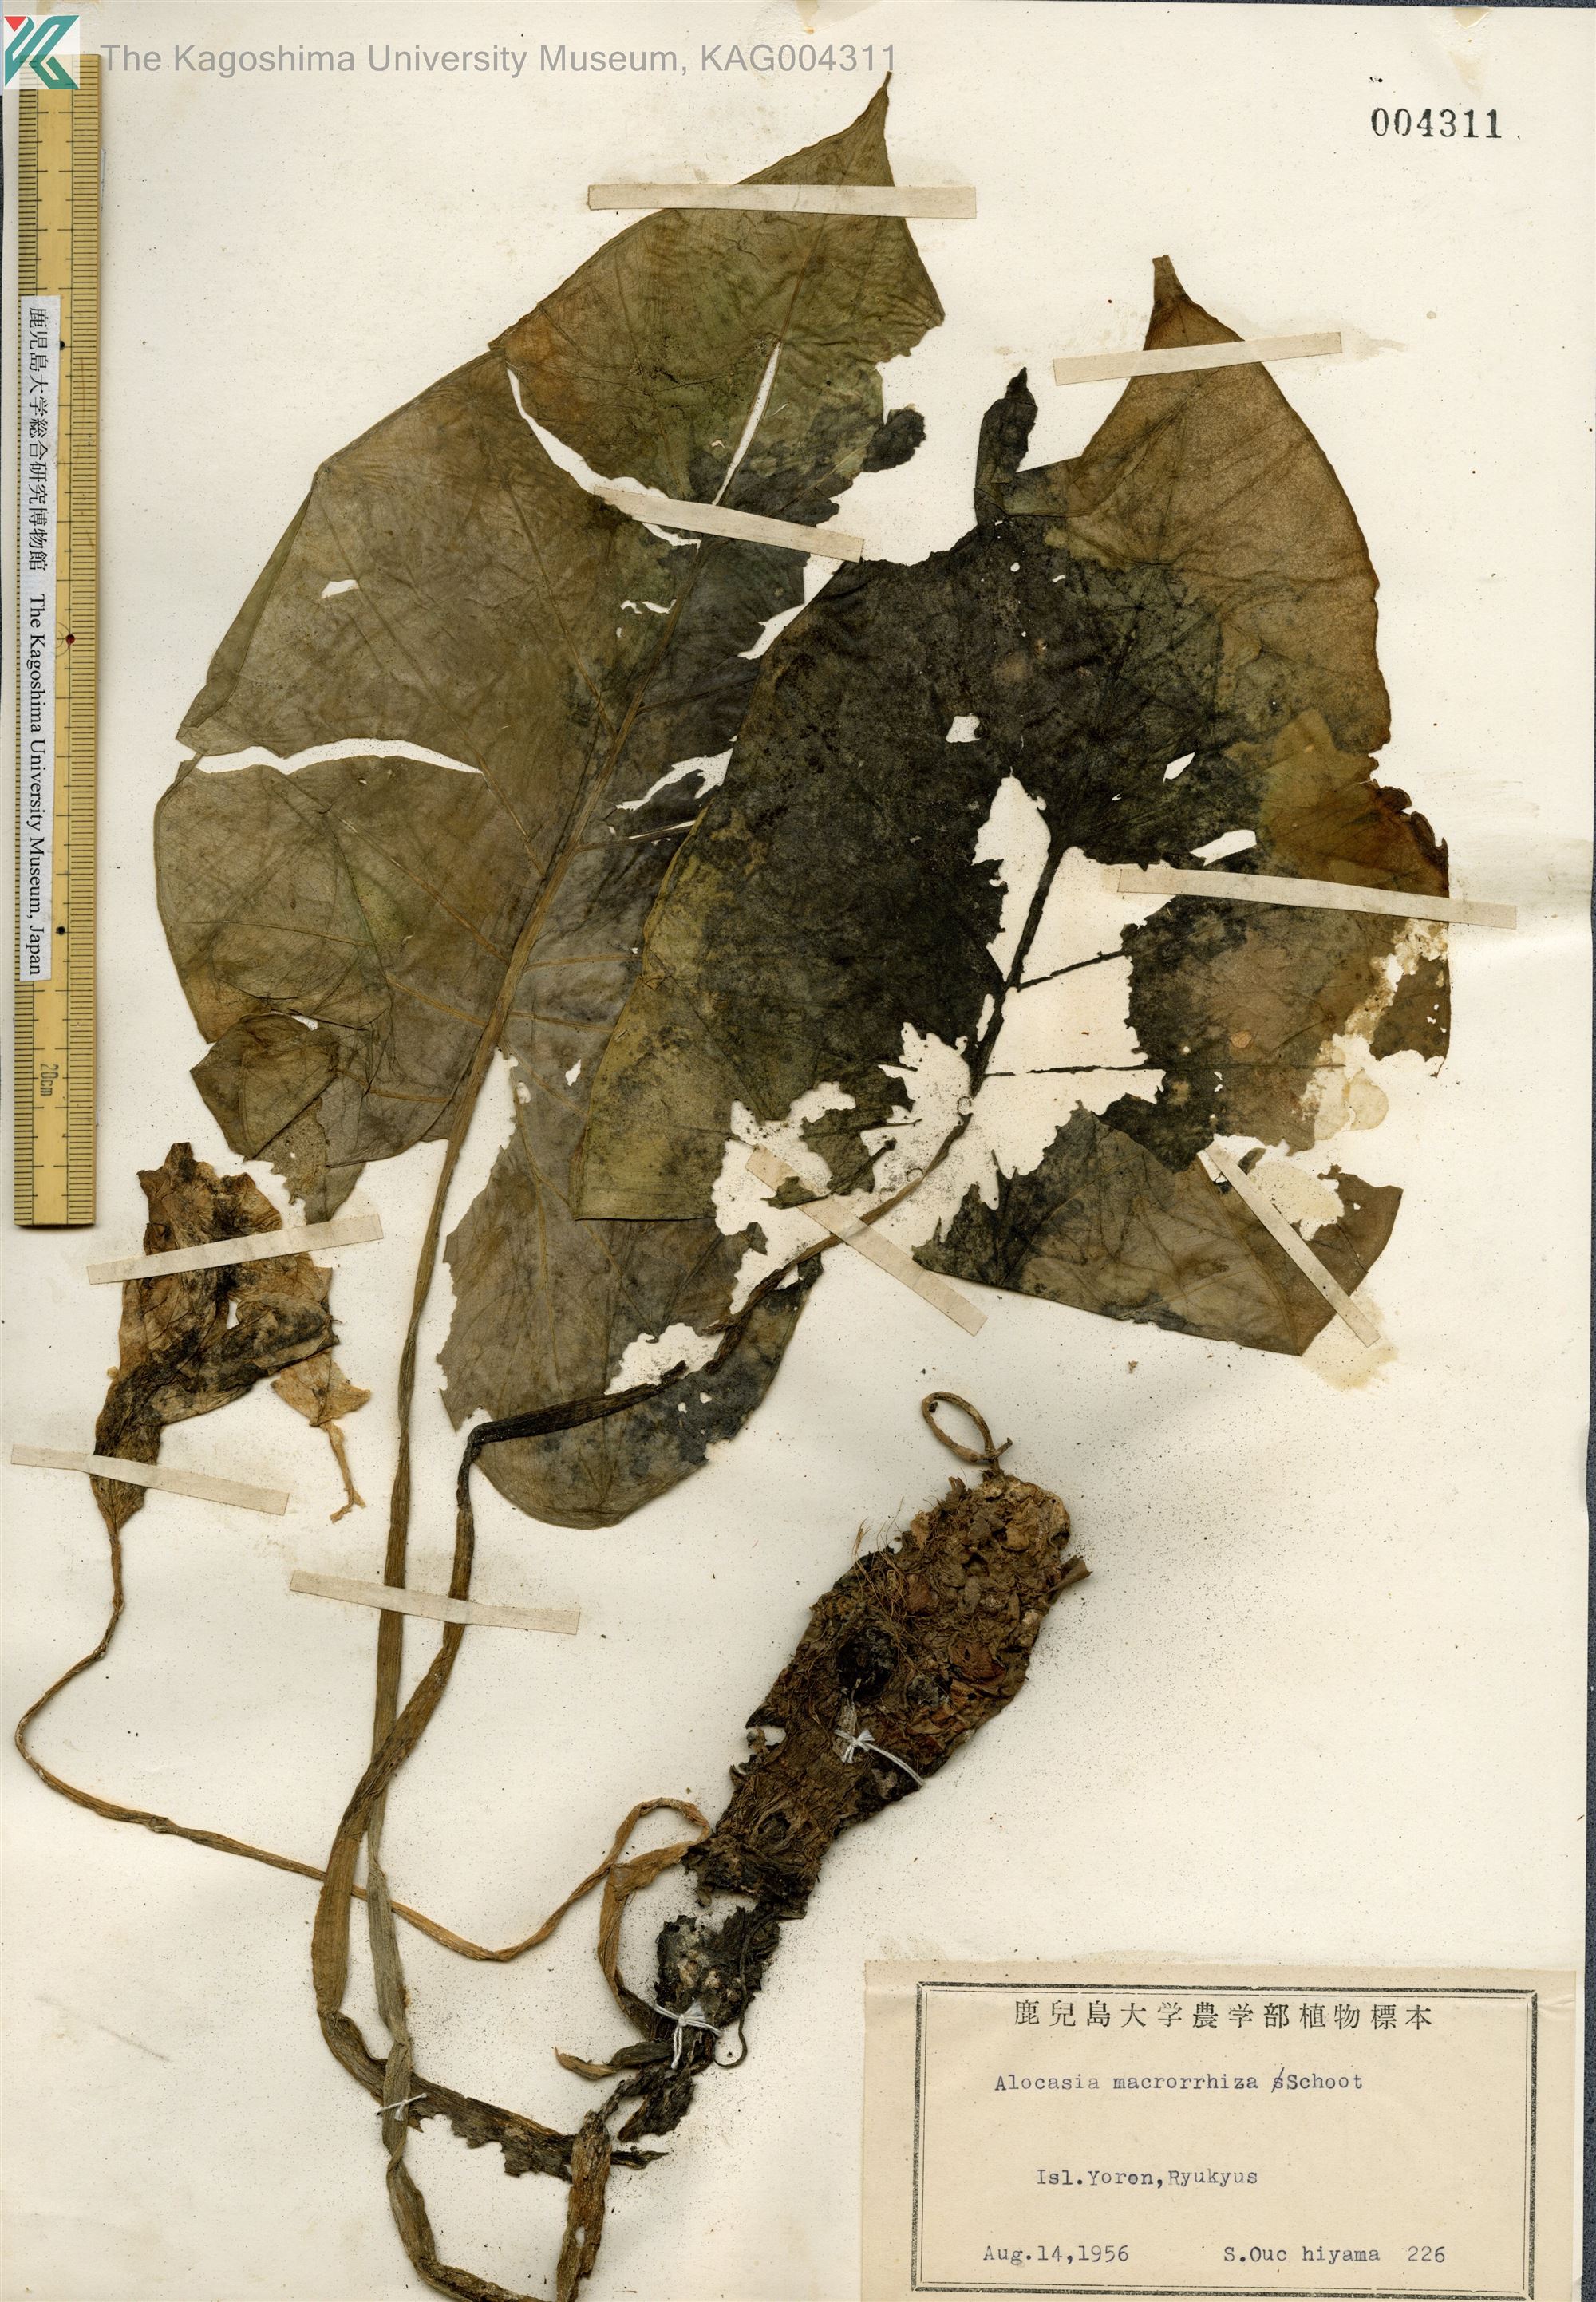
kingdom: Plantae
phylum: Tracheophyta
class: Liliopsida
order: Alismatales
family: Araceae
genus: Alocasia
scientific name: Alocasia odora
